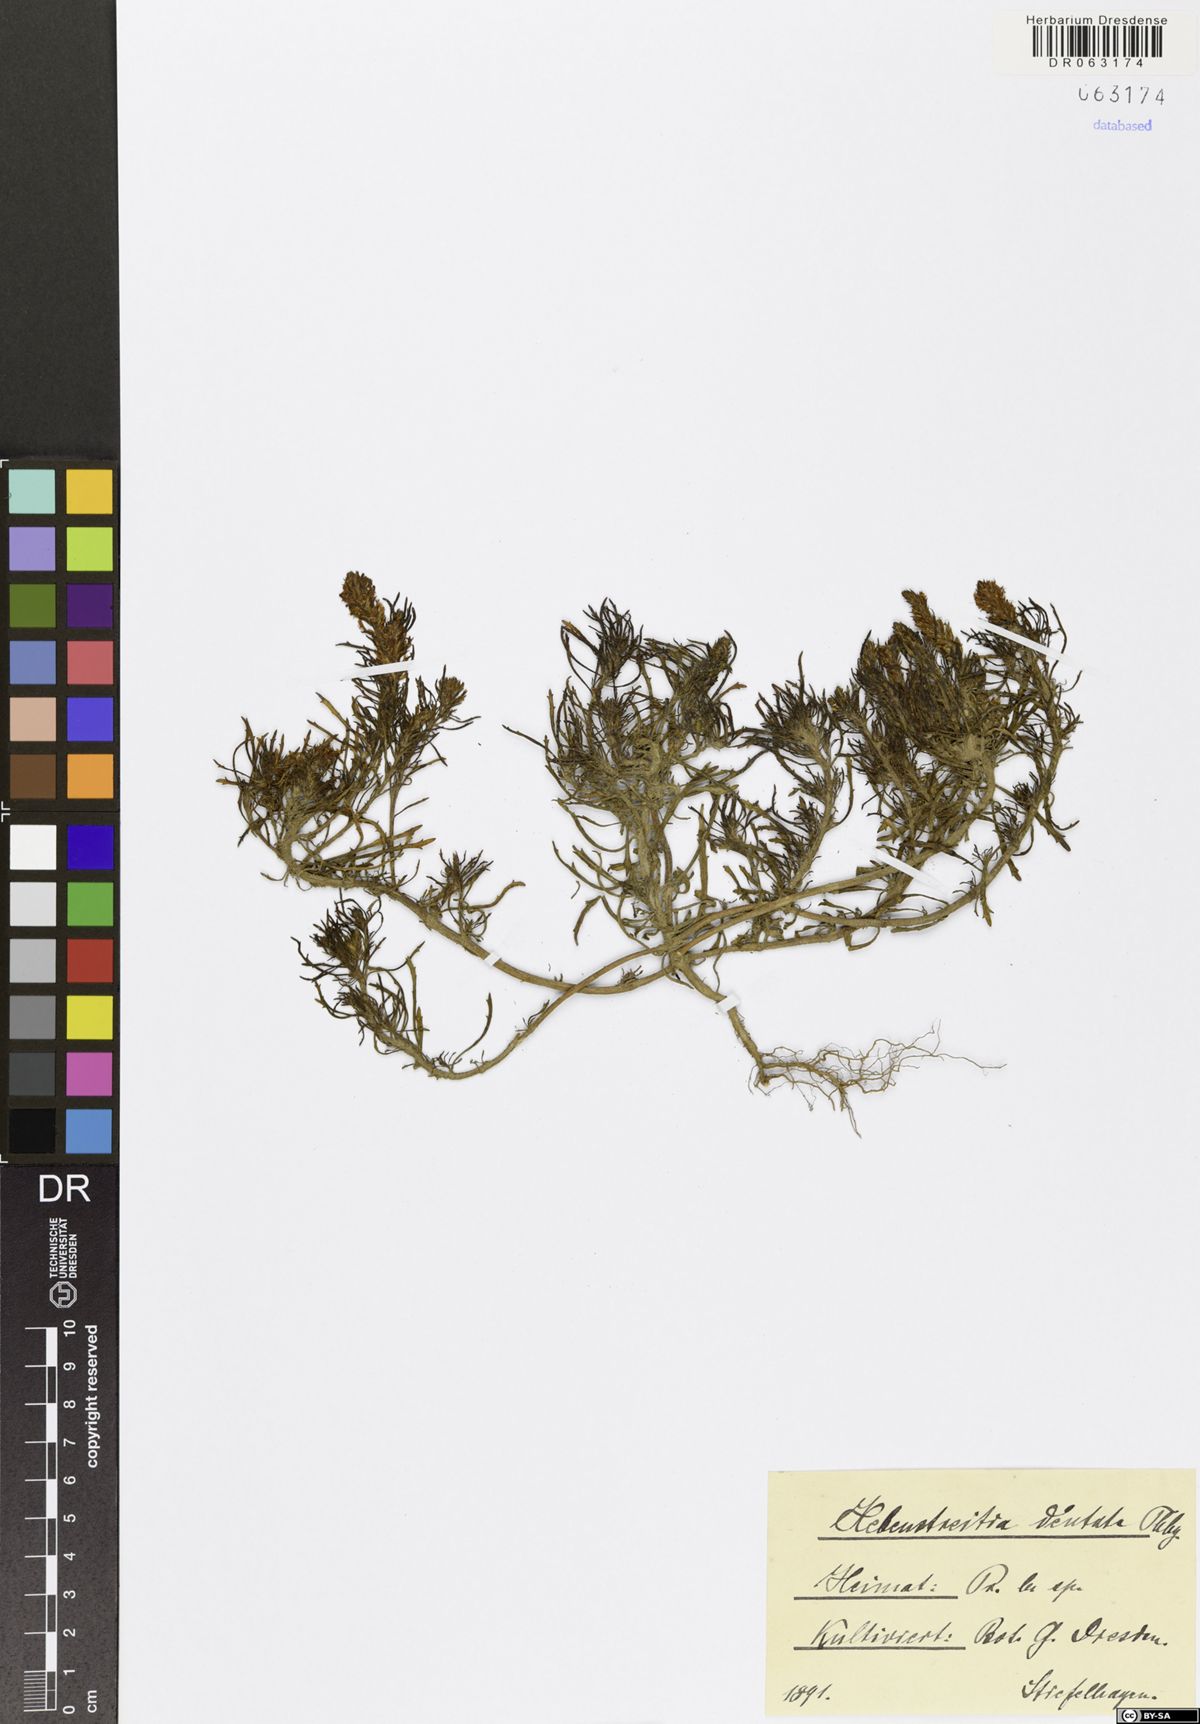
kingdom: Plantae
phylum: Tracheophyta
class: Magnoliopsida
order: Lamiales
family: Scrophulariaceae
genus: Hebenstretia
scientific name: Hebenstretia dentata
